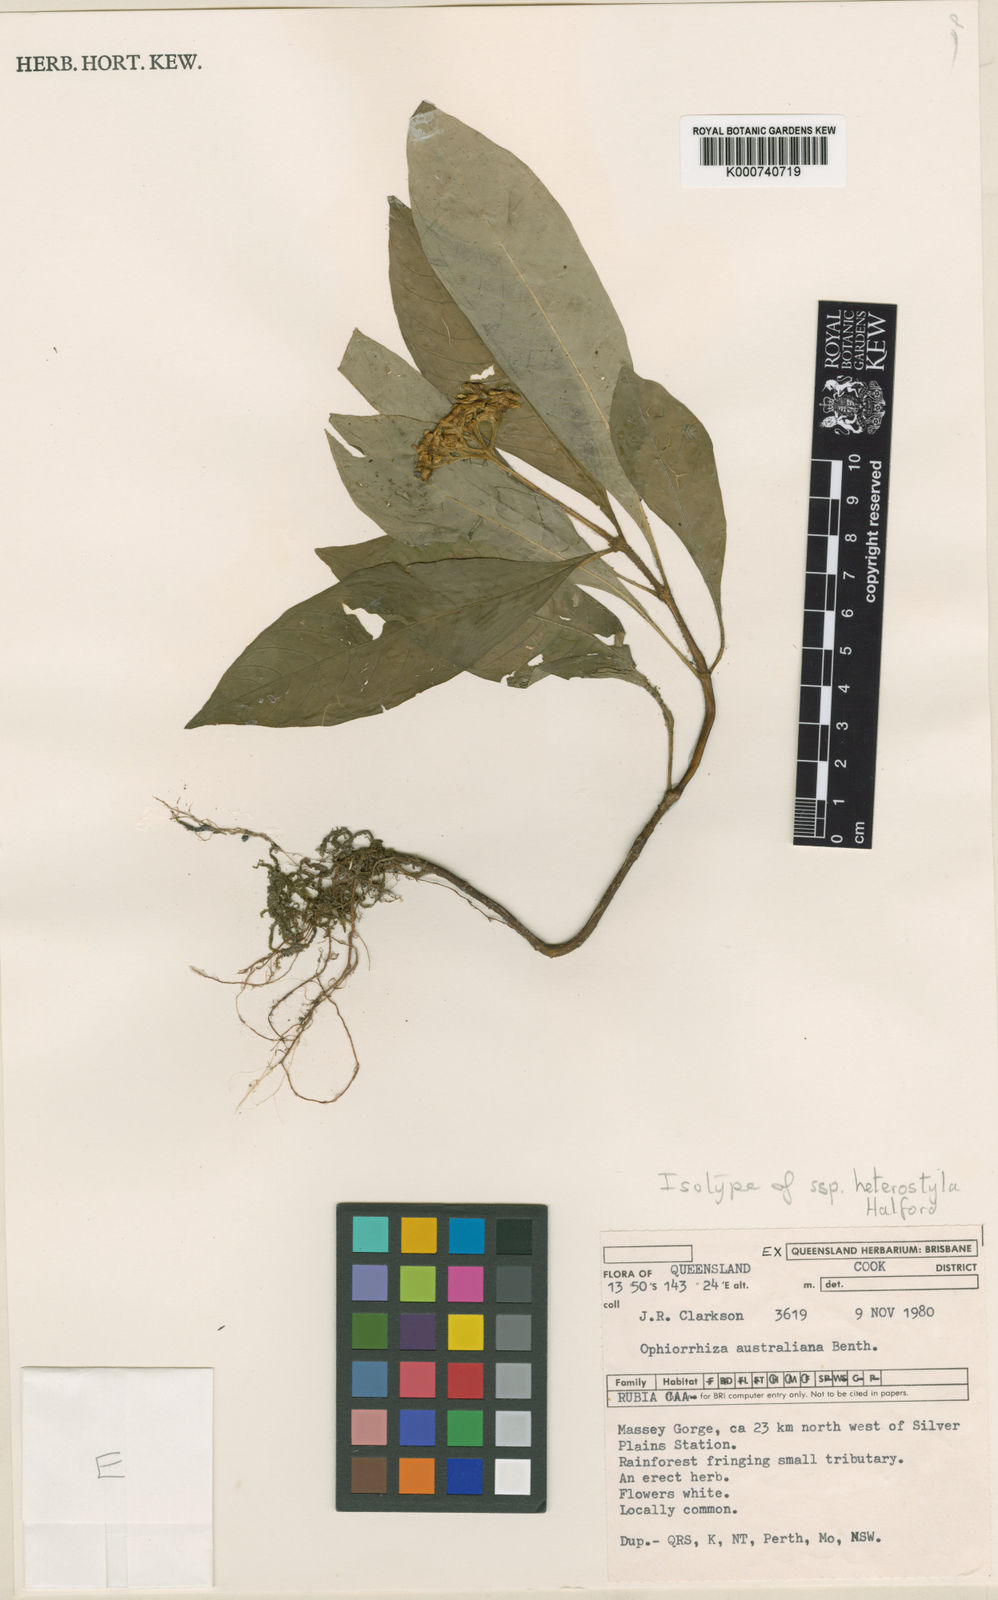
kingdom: Plantae
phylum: Tracheophyta
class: Magnoliopsida
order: Gentianales
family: Rubiaceae
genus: Ophiorrhiza
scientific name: Ophiorrhiza australiana
